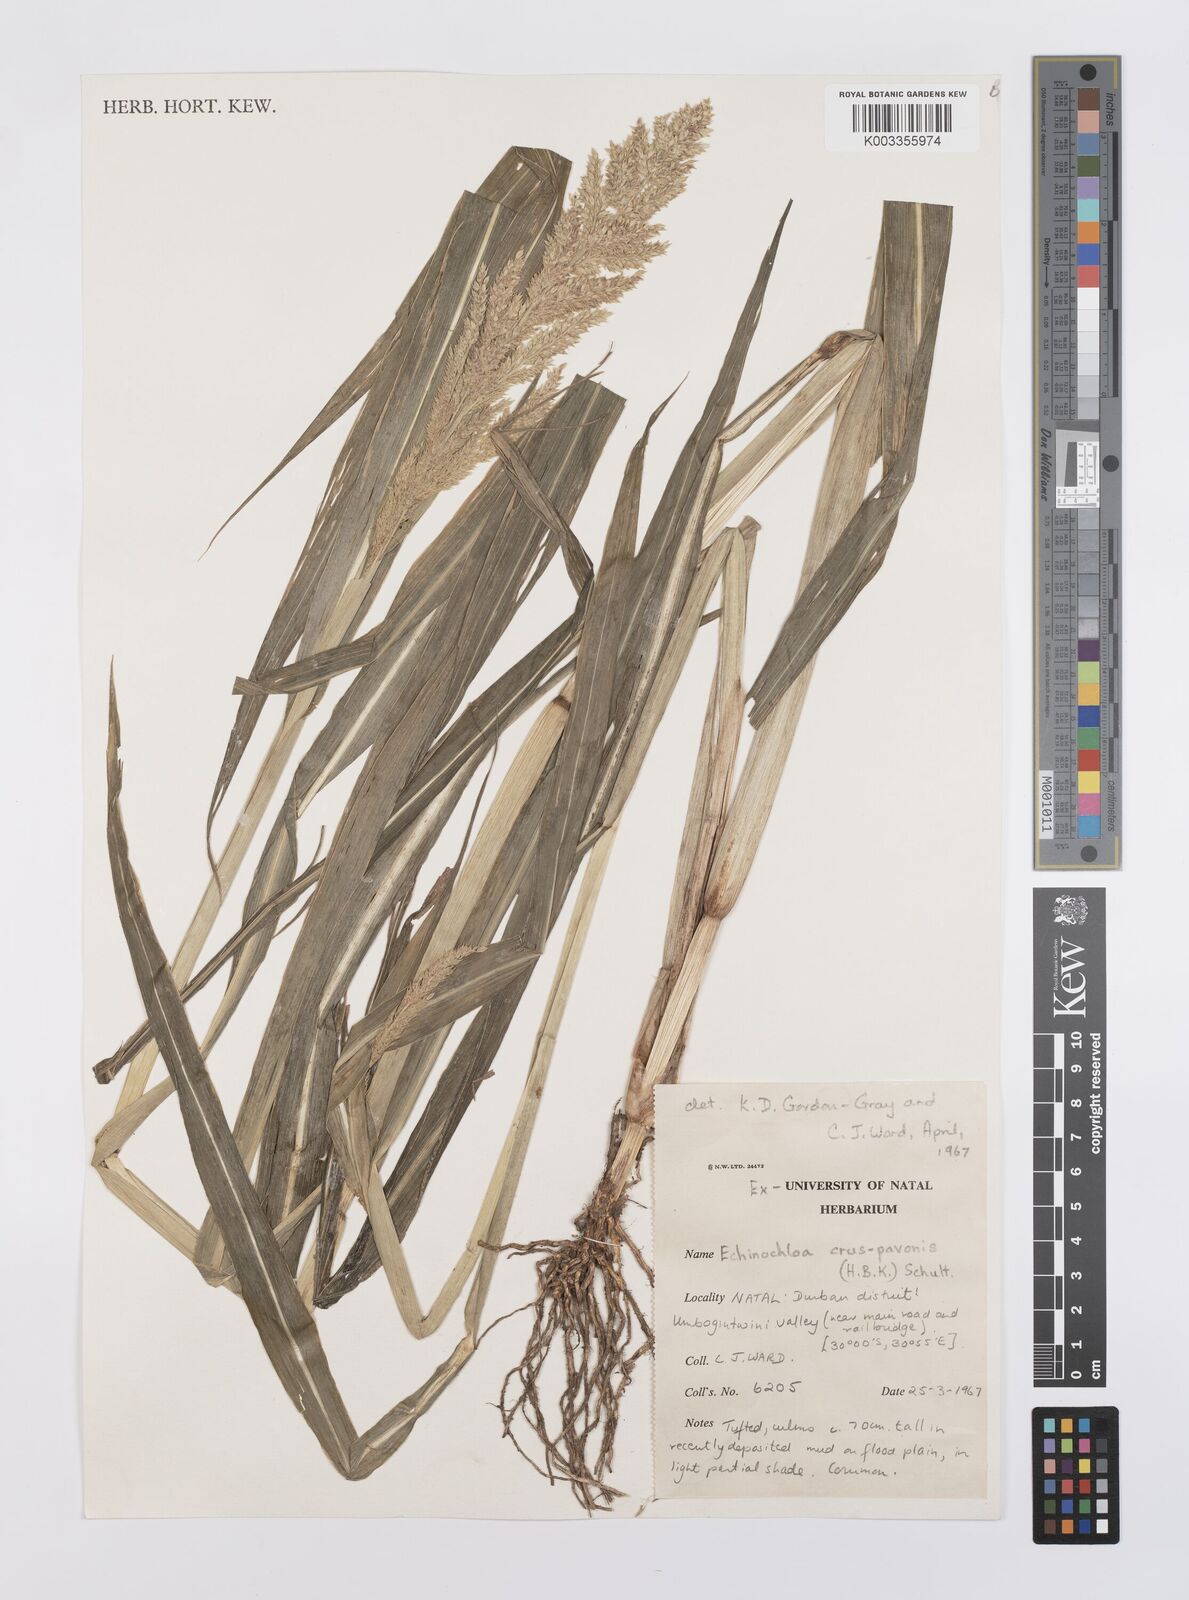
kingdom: Plantae
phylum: Tracheophyta
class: Liliopsida
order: Poales
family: Poaceae
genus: Echinochloa
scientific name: Echinochloa crus-pavonis
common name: Gulf cockspur grass
